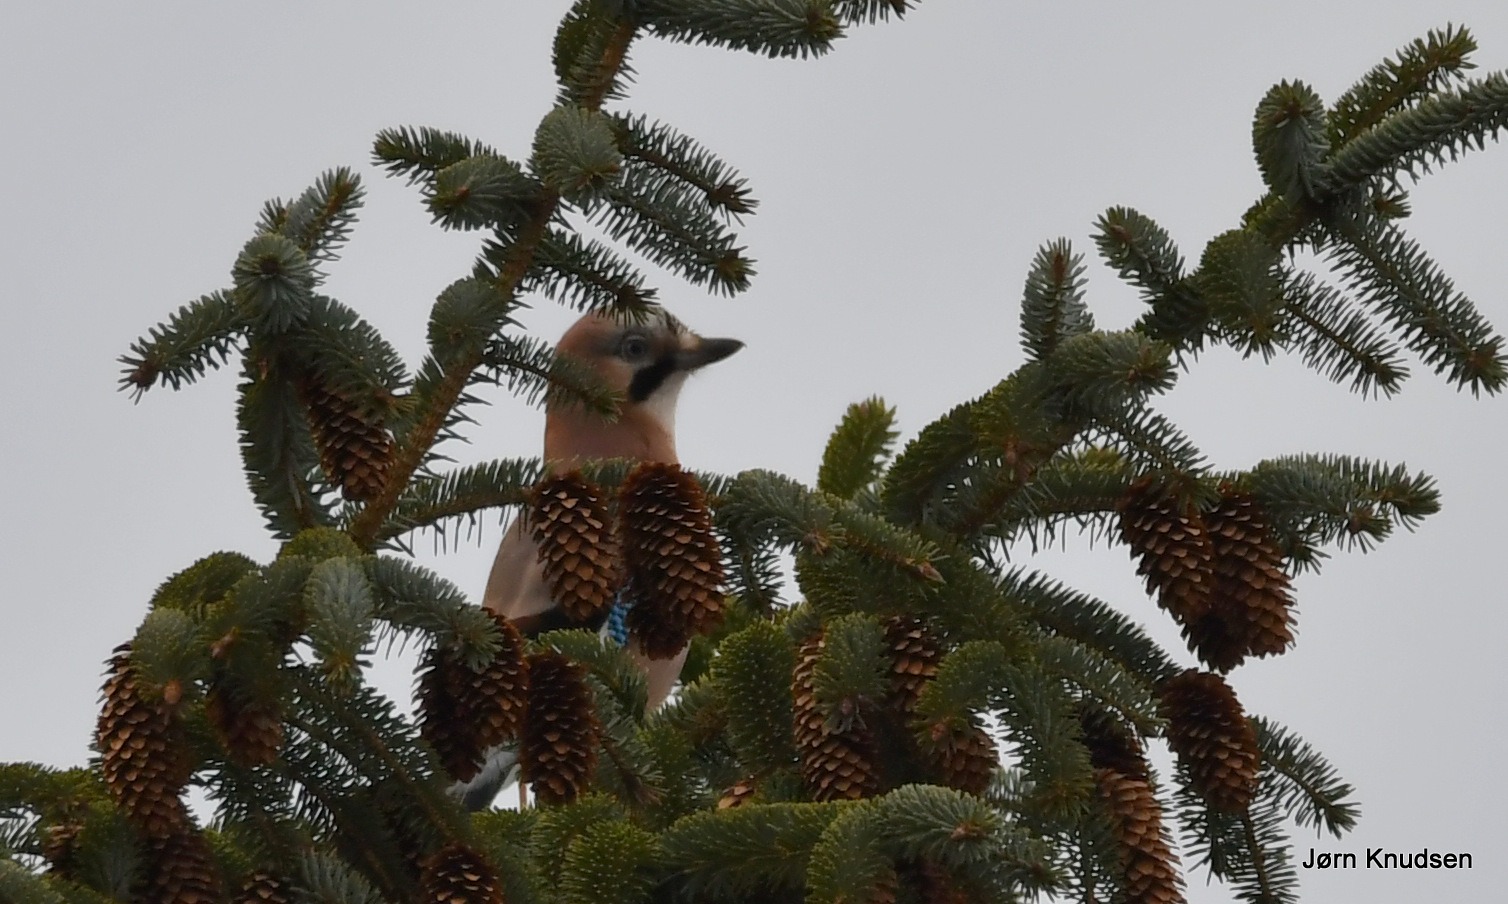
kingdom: Animalia
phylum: Chordata
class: Aves
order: Passeriformes
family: Corvidae
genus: Garrulus
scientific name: Garrulus glandarius
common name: Skovskade
